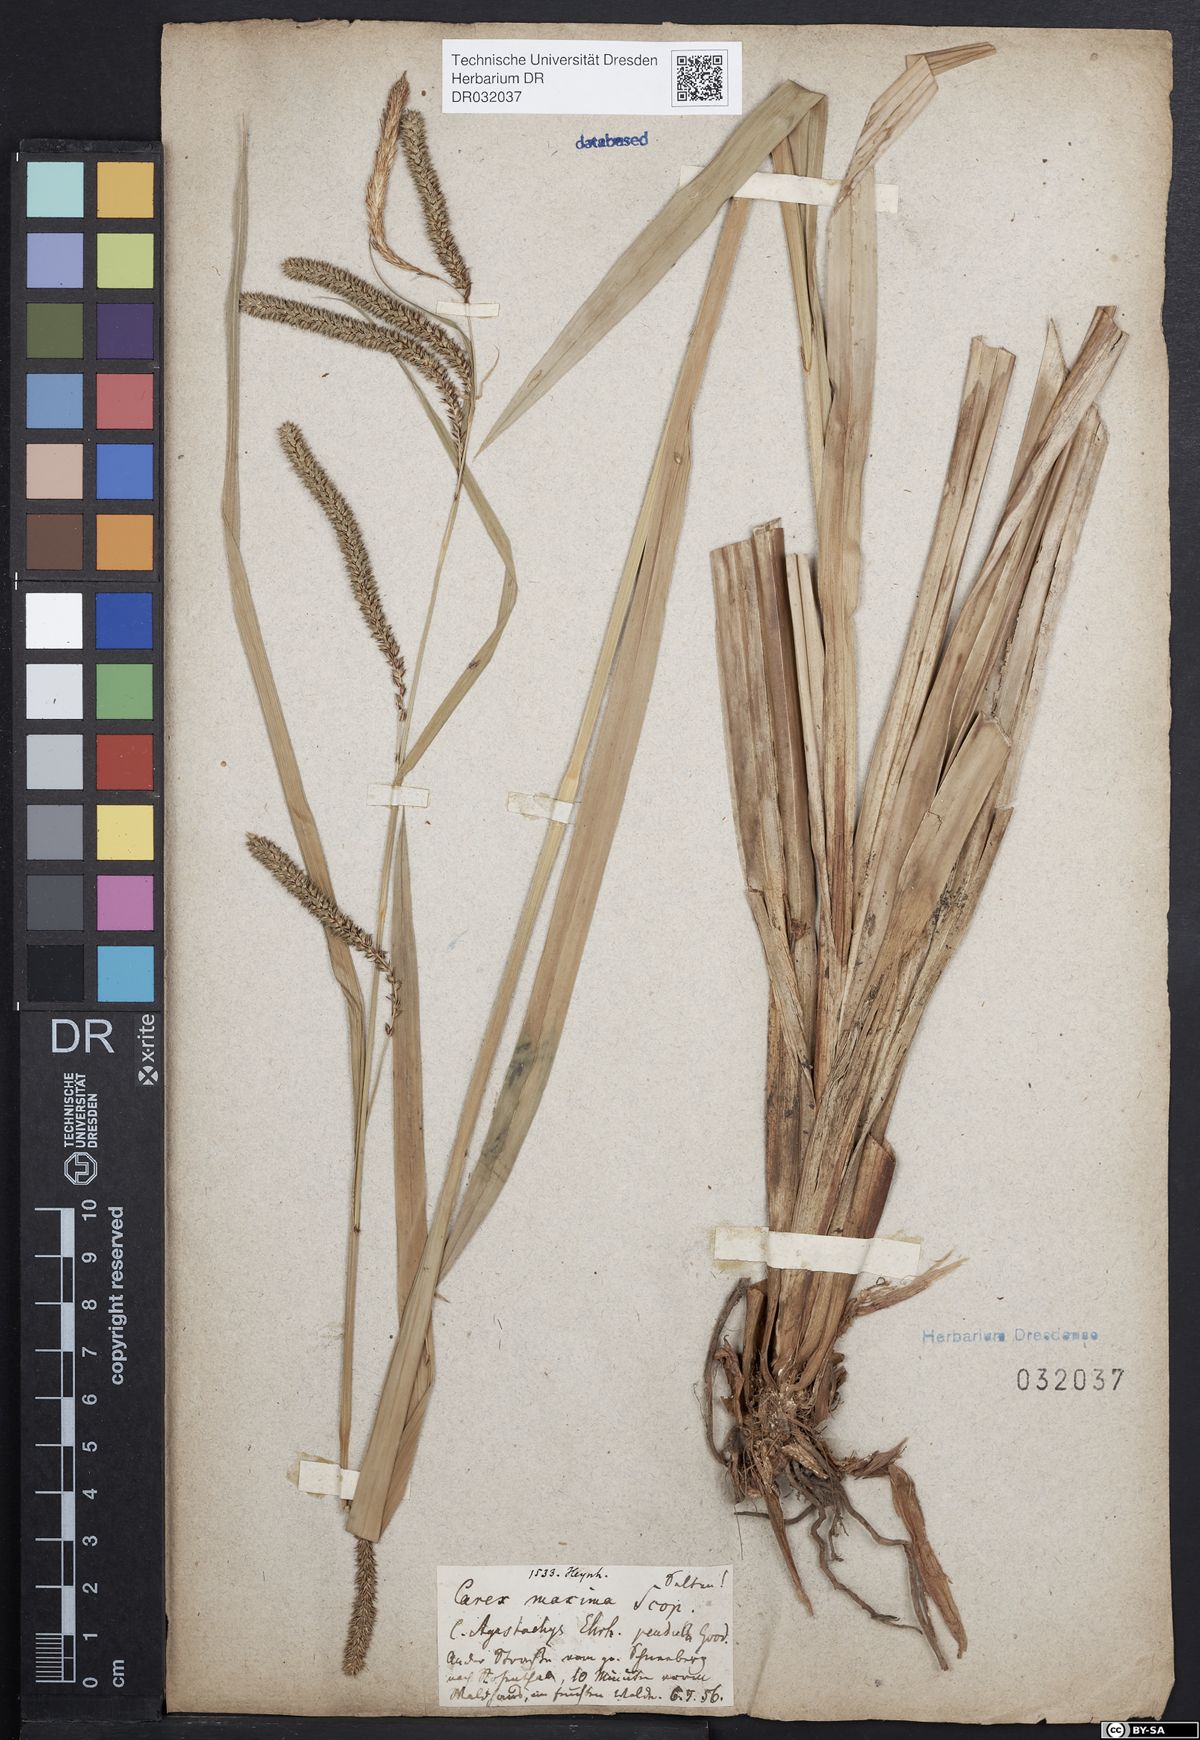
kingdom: Plantae
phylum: Tracheophyta
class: Liliopsida
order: Poales
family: Cyperaceae
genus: Carex
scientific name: Carex pendula
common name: Pendulous sedge
